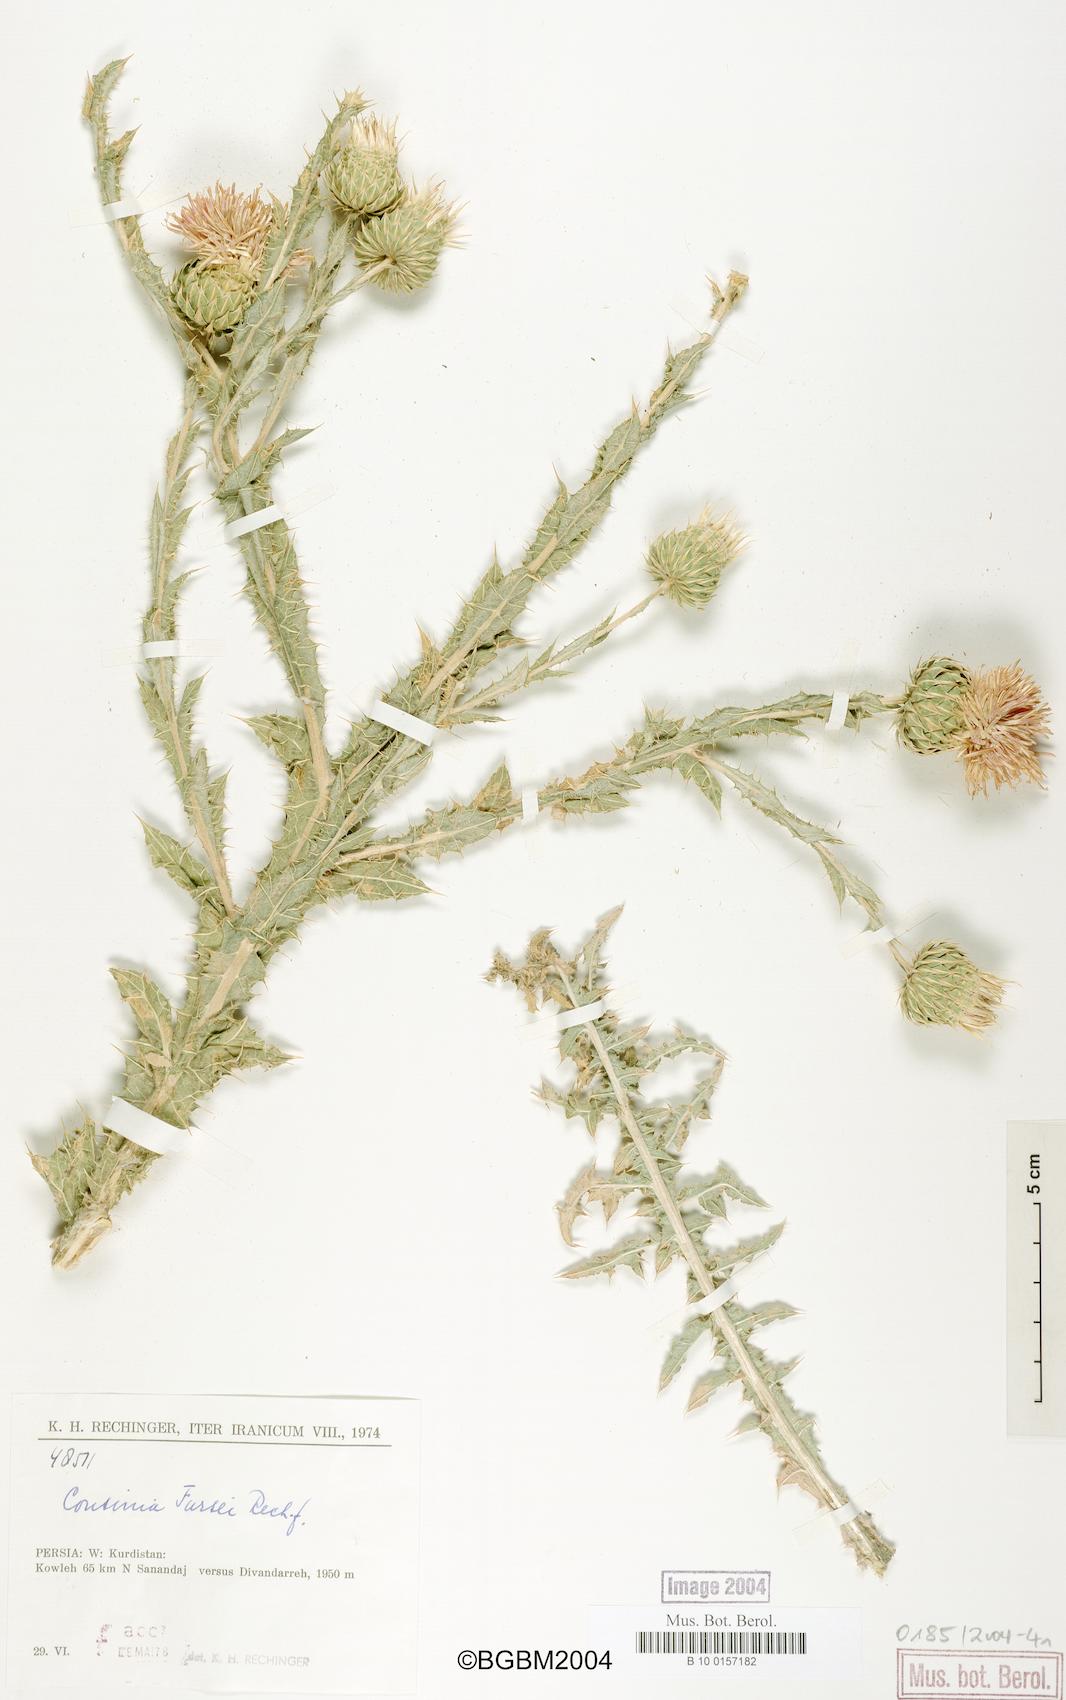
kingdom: Plantae
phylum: Tracheophyta
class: Magnoliopsida
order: Asterales
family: Asteraceae
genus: Cousinia
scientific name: Cousinia fursei
